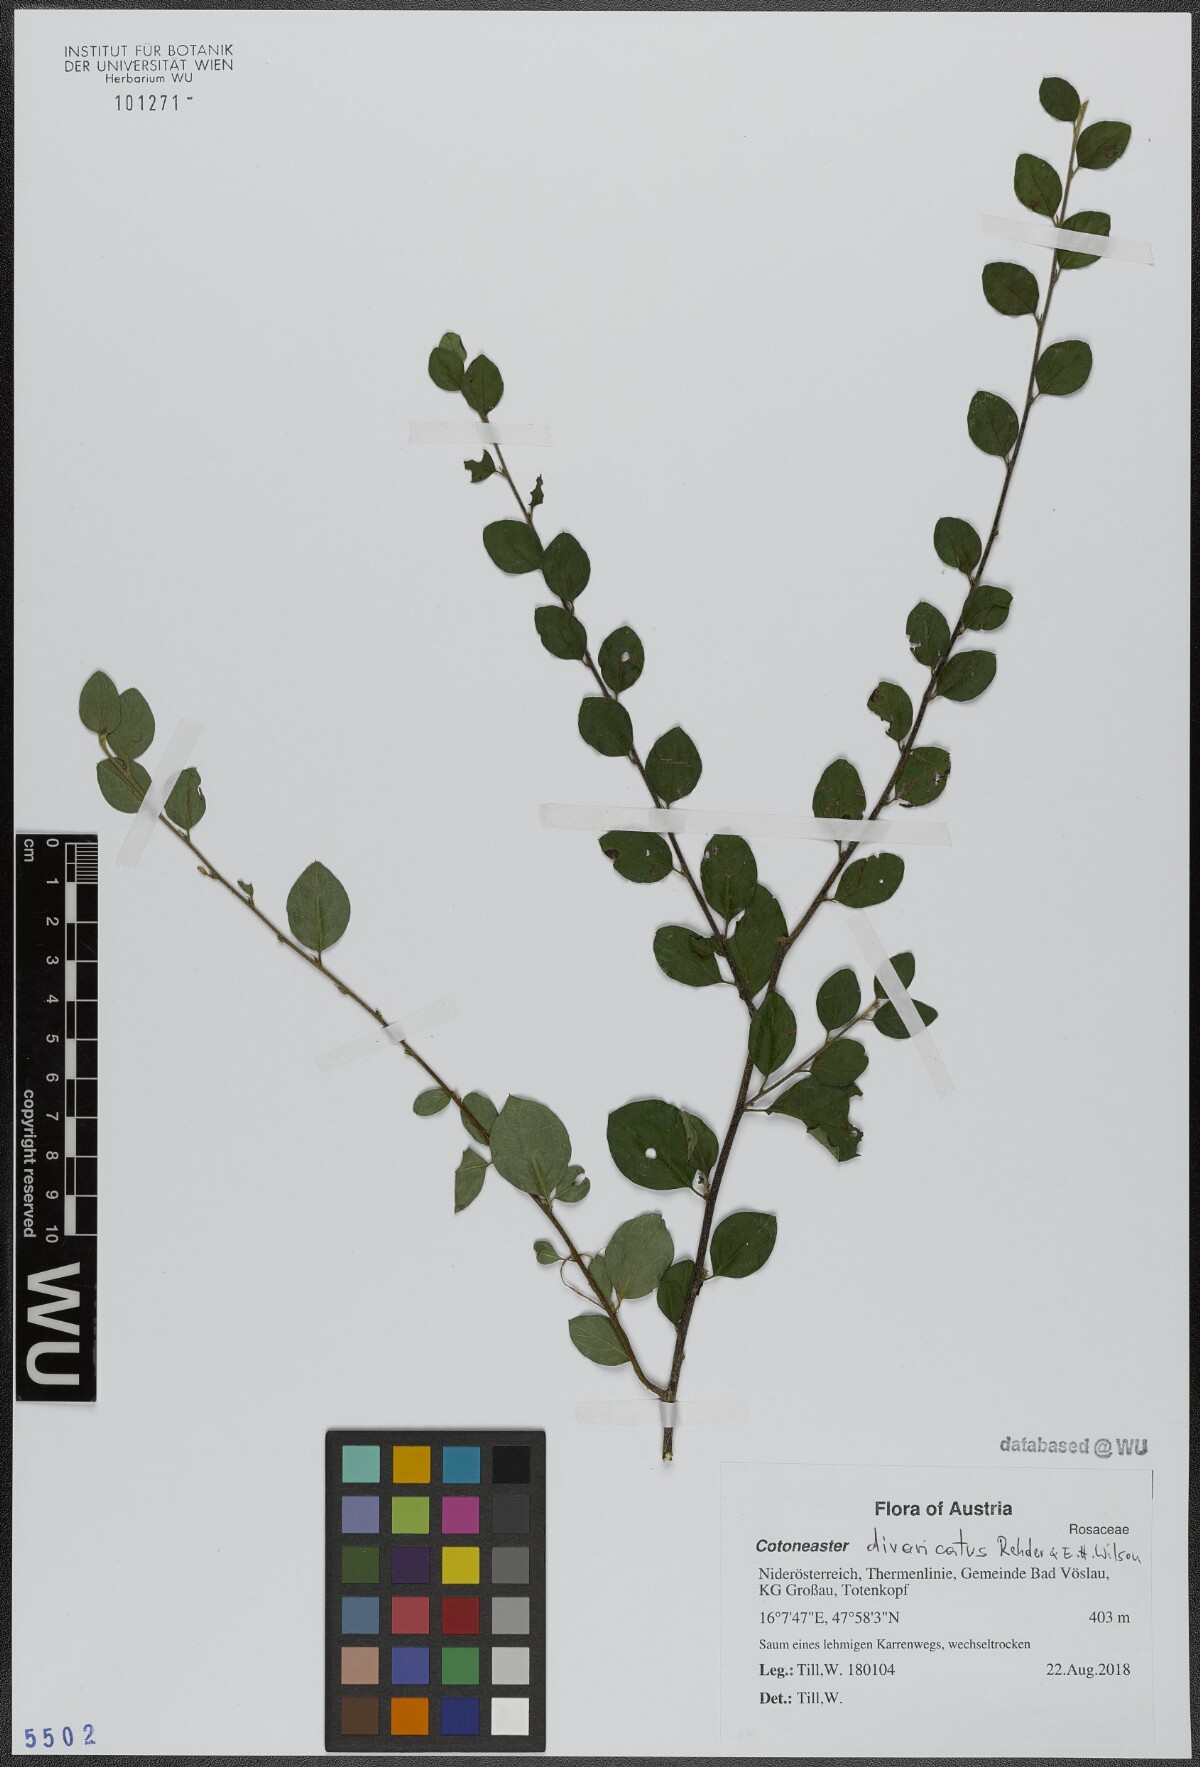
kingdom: Plantae
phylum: Tracheophyta
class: Magnoliopsida
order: Rosales
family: Rosaceae
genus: Cotoneaster
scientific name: Cotoneaster divaricatus
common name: Spreading cotoneaster
